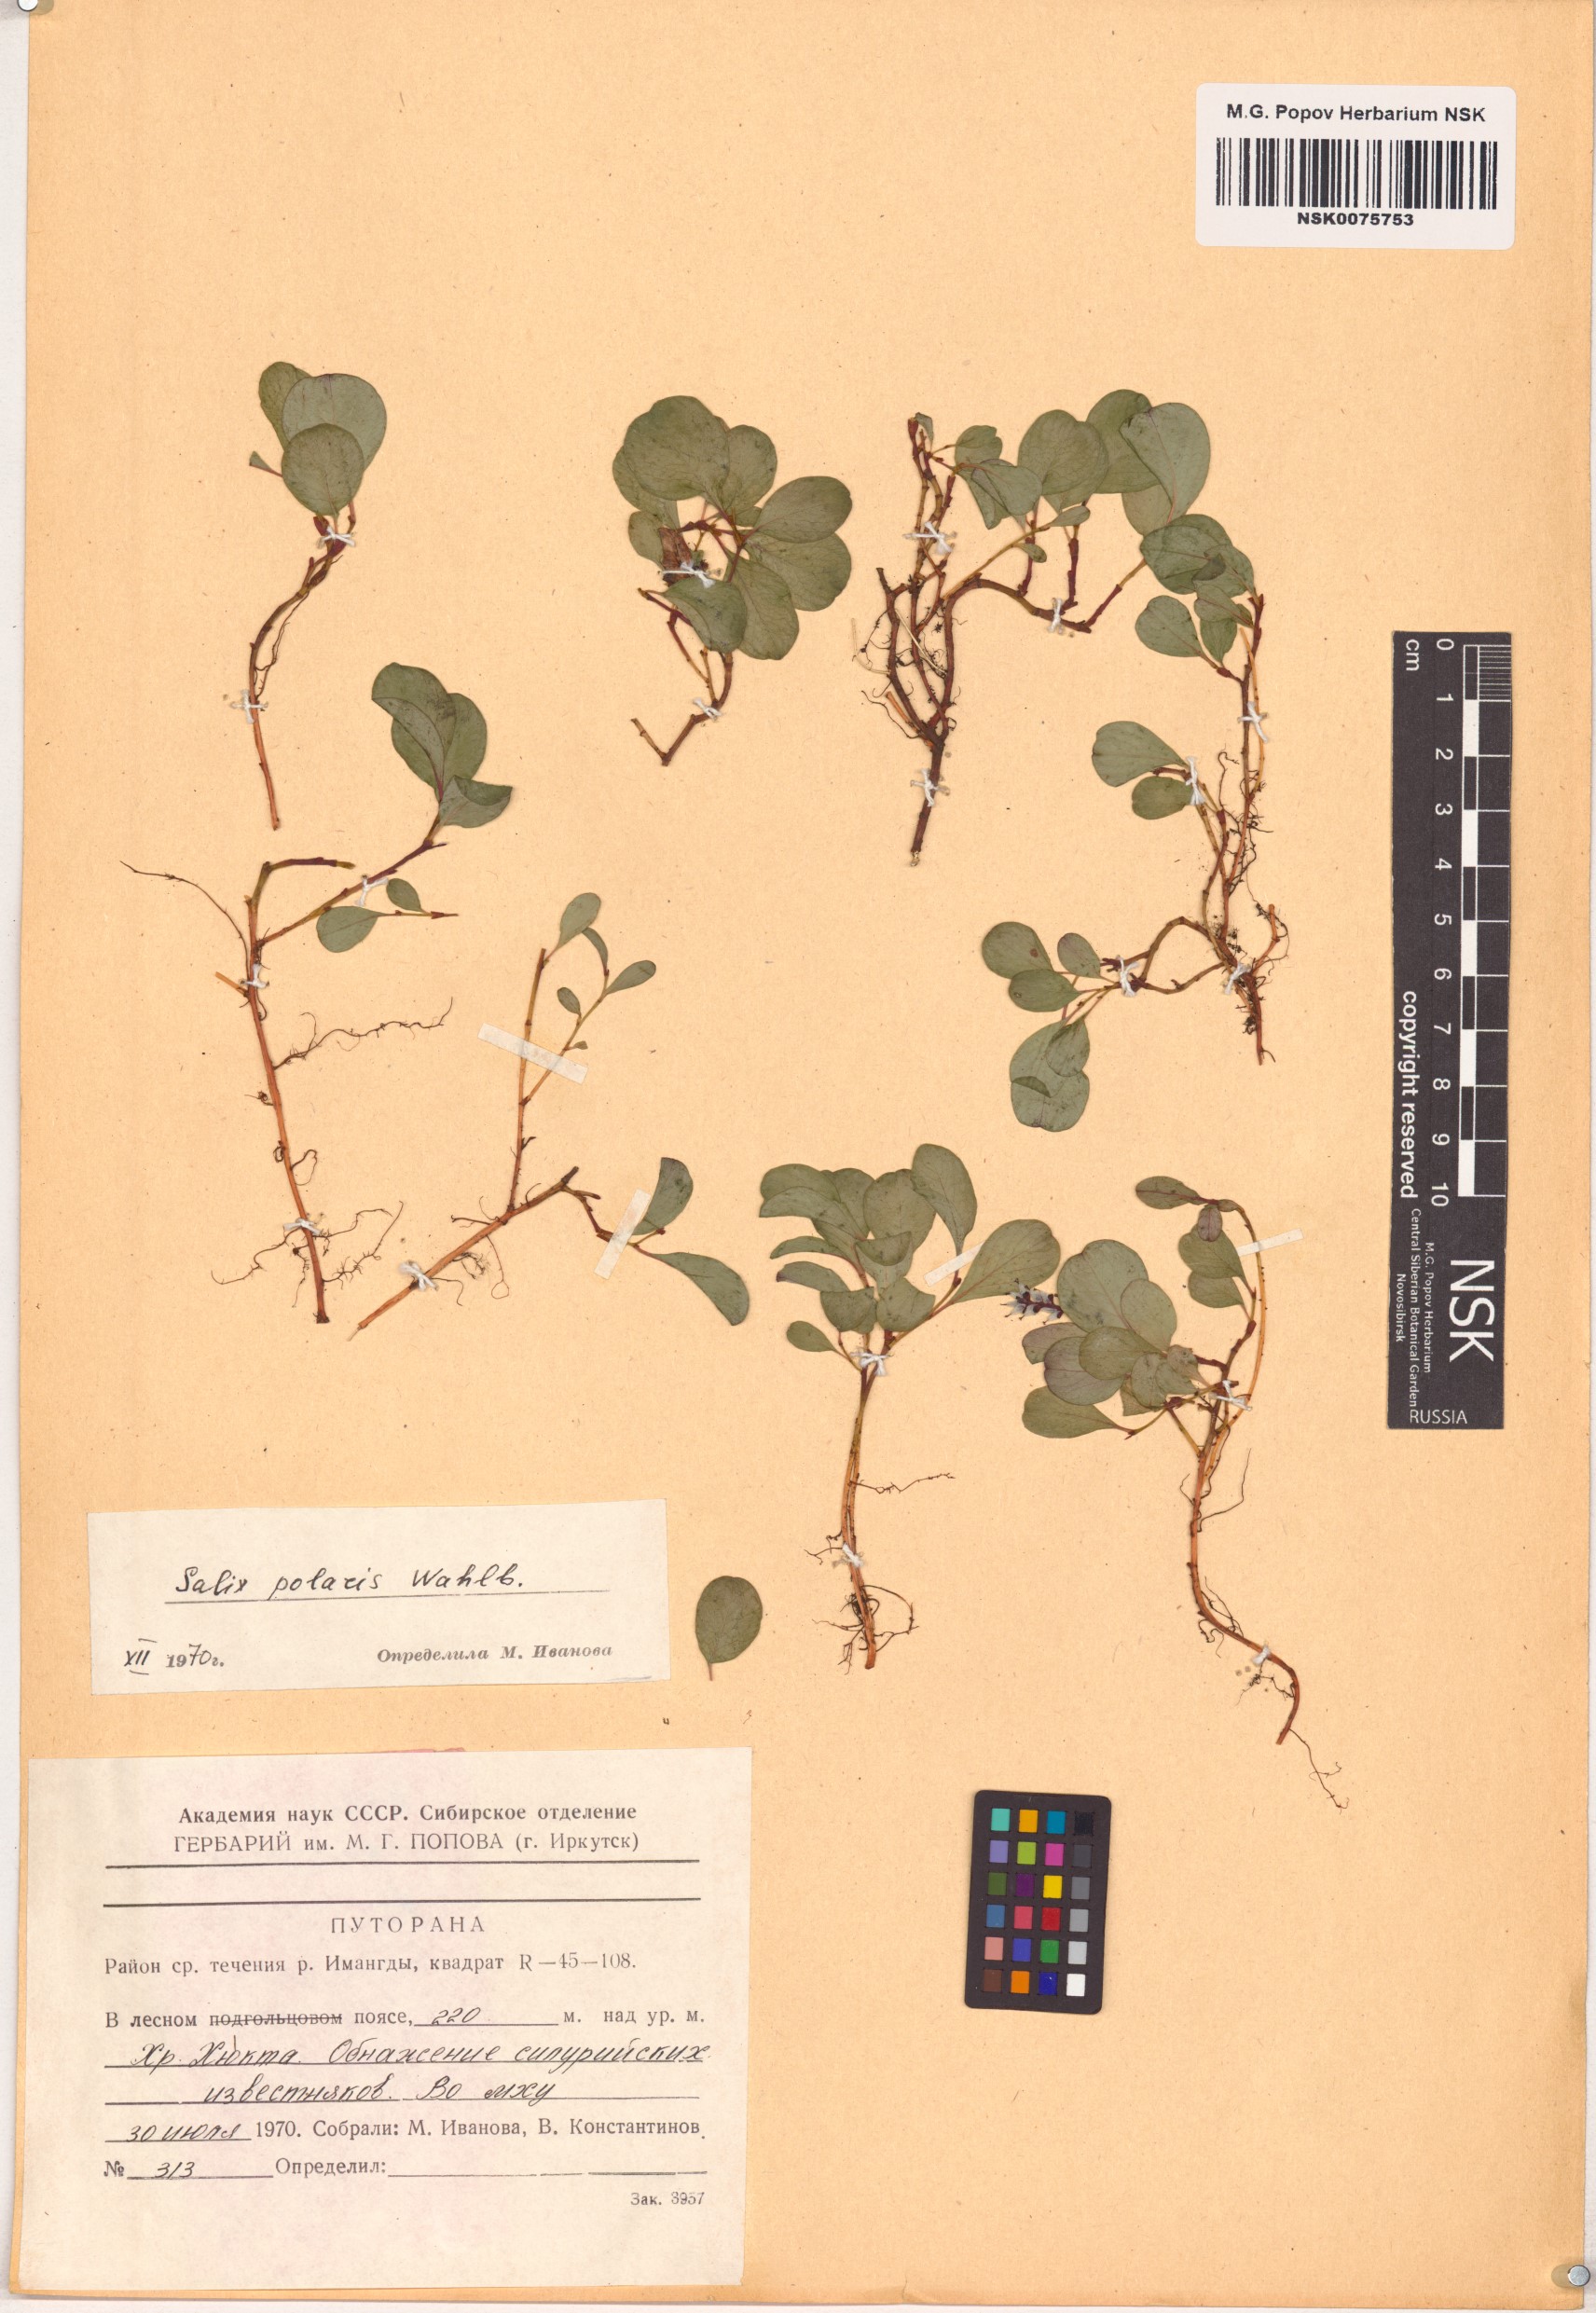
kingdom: Plantae
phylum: Tracheophyta
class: Magnoliopsida
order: Malpighiales
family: Salicaceae
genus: Salix
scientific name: Salix polaris
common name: Polar willow
